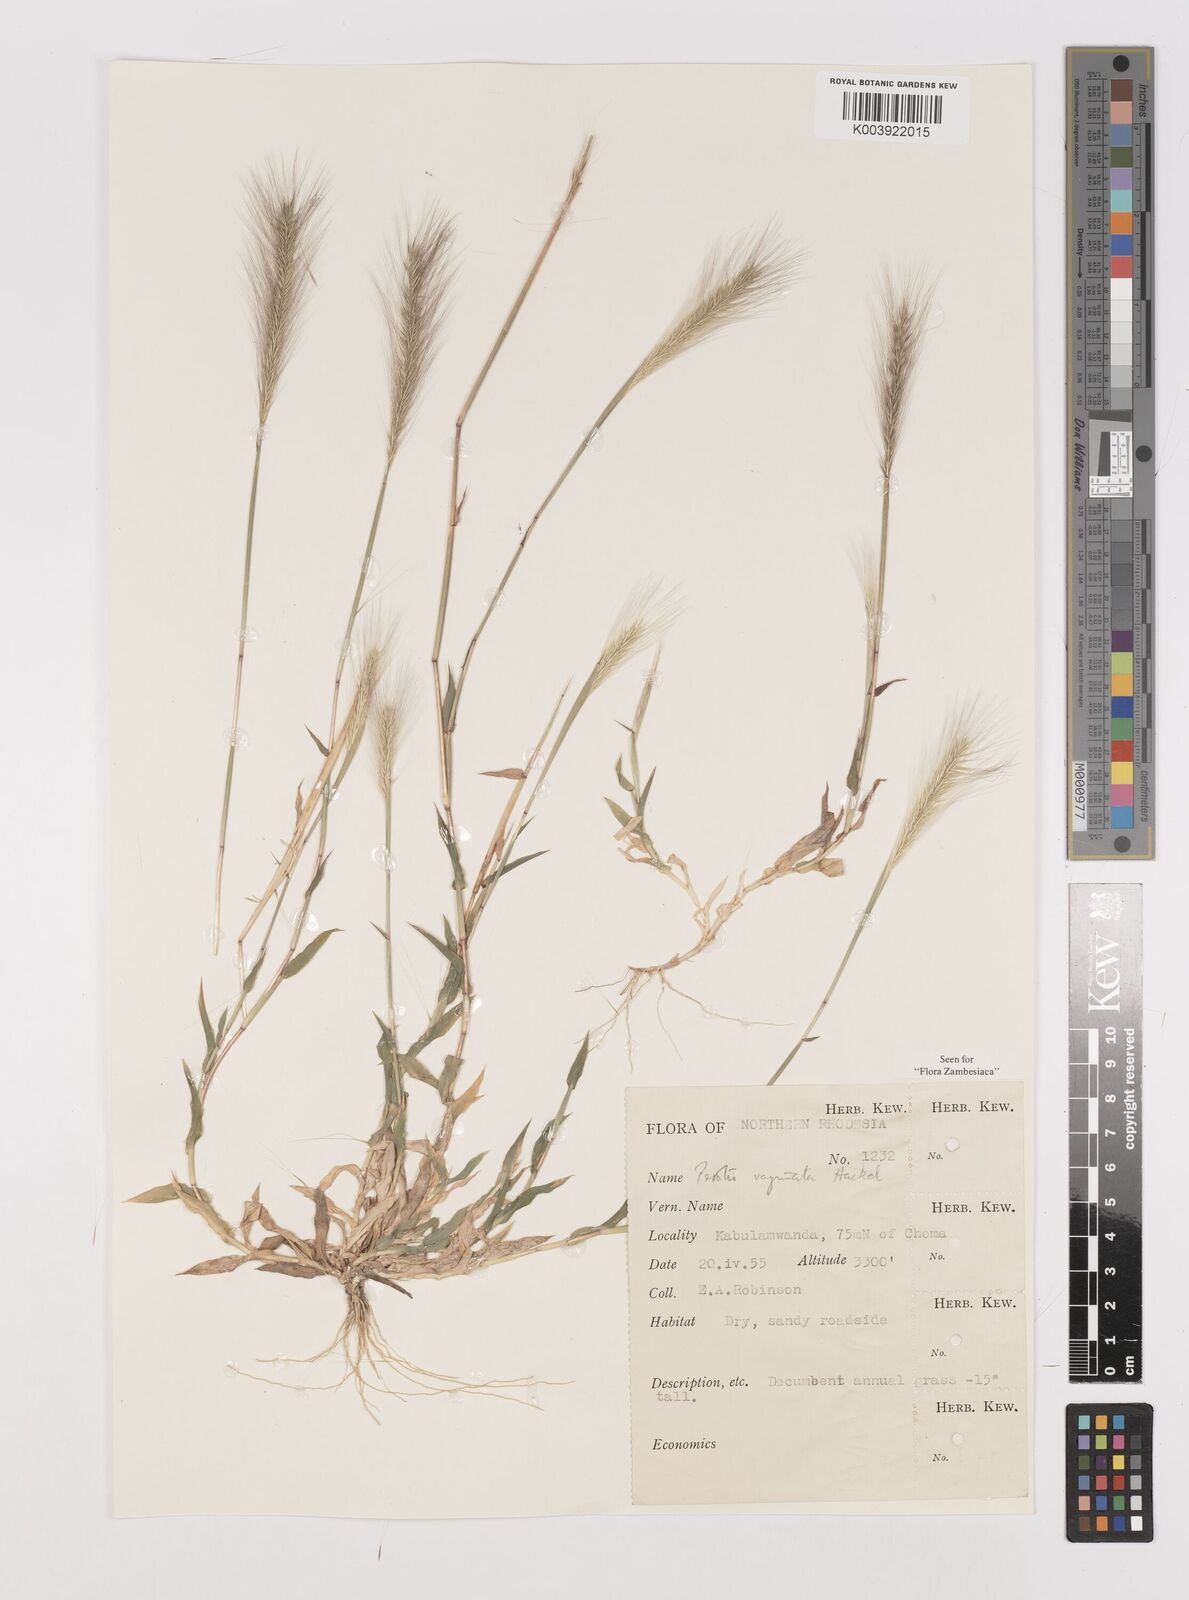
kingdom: Plantae
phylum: Tracheophyta
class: Liliopsida
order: Poales
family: Poaceae
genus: Perotis
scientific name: Perotis vaginata
